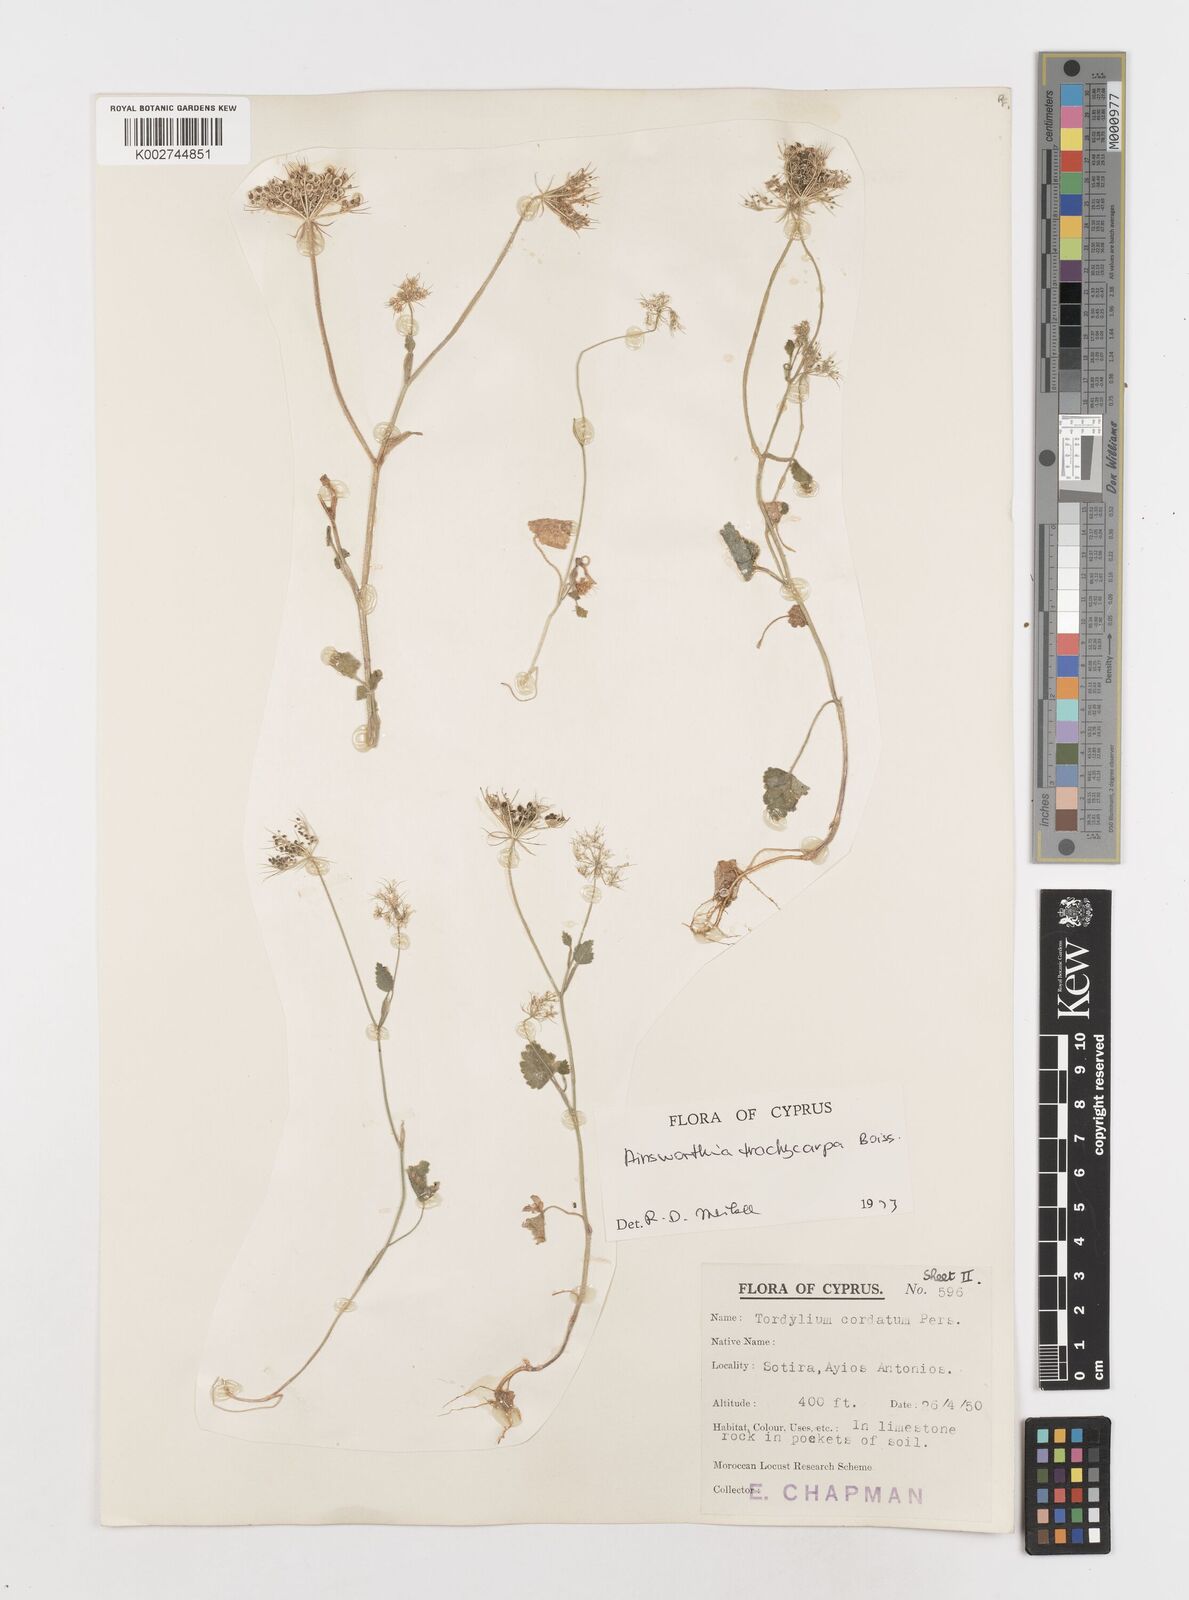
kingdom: Plantae
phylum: Tracheophyta
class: Magnoliopsida
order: Apiales
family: Apiaceae
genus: Ainsworthia
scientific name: Ainsworthia trachycarpa
